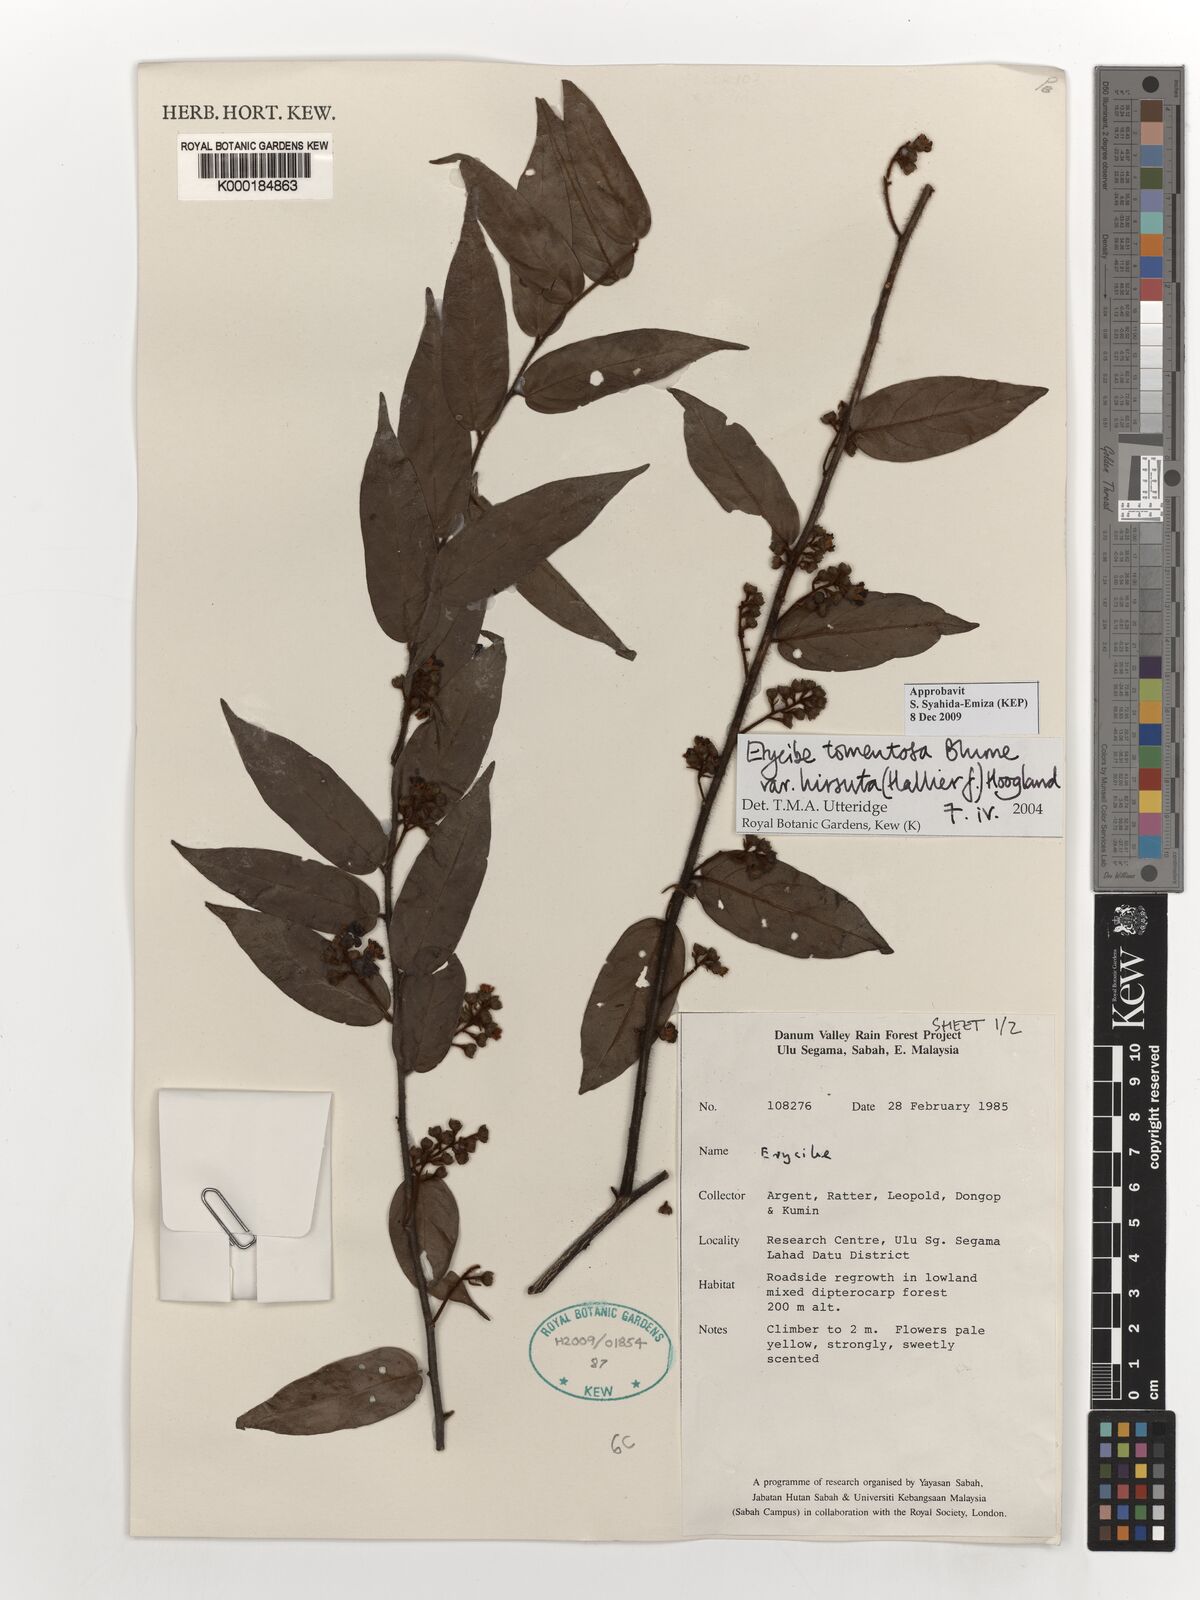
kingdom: Plantae
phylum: Tracheophyta
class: Magnoliopsida
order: Solanales
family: Convolvulaceae
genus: Erycibe
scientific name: Erycibe tomentosa
